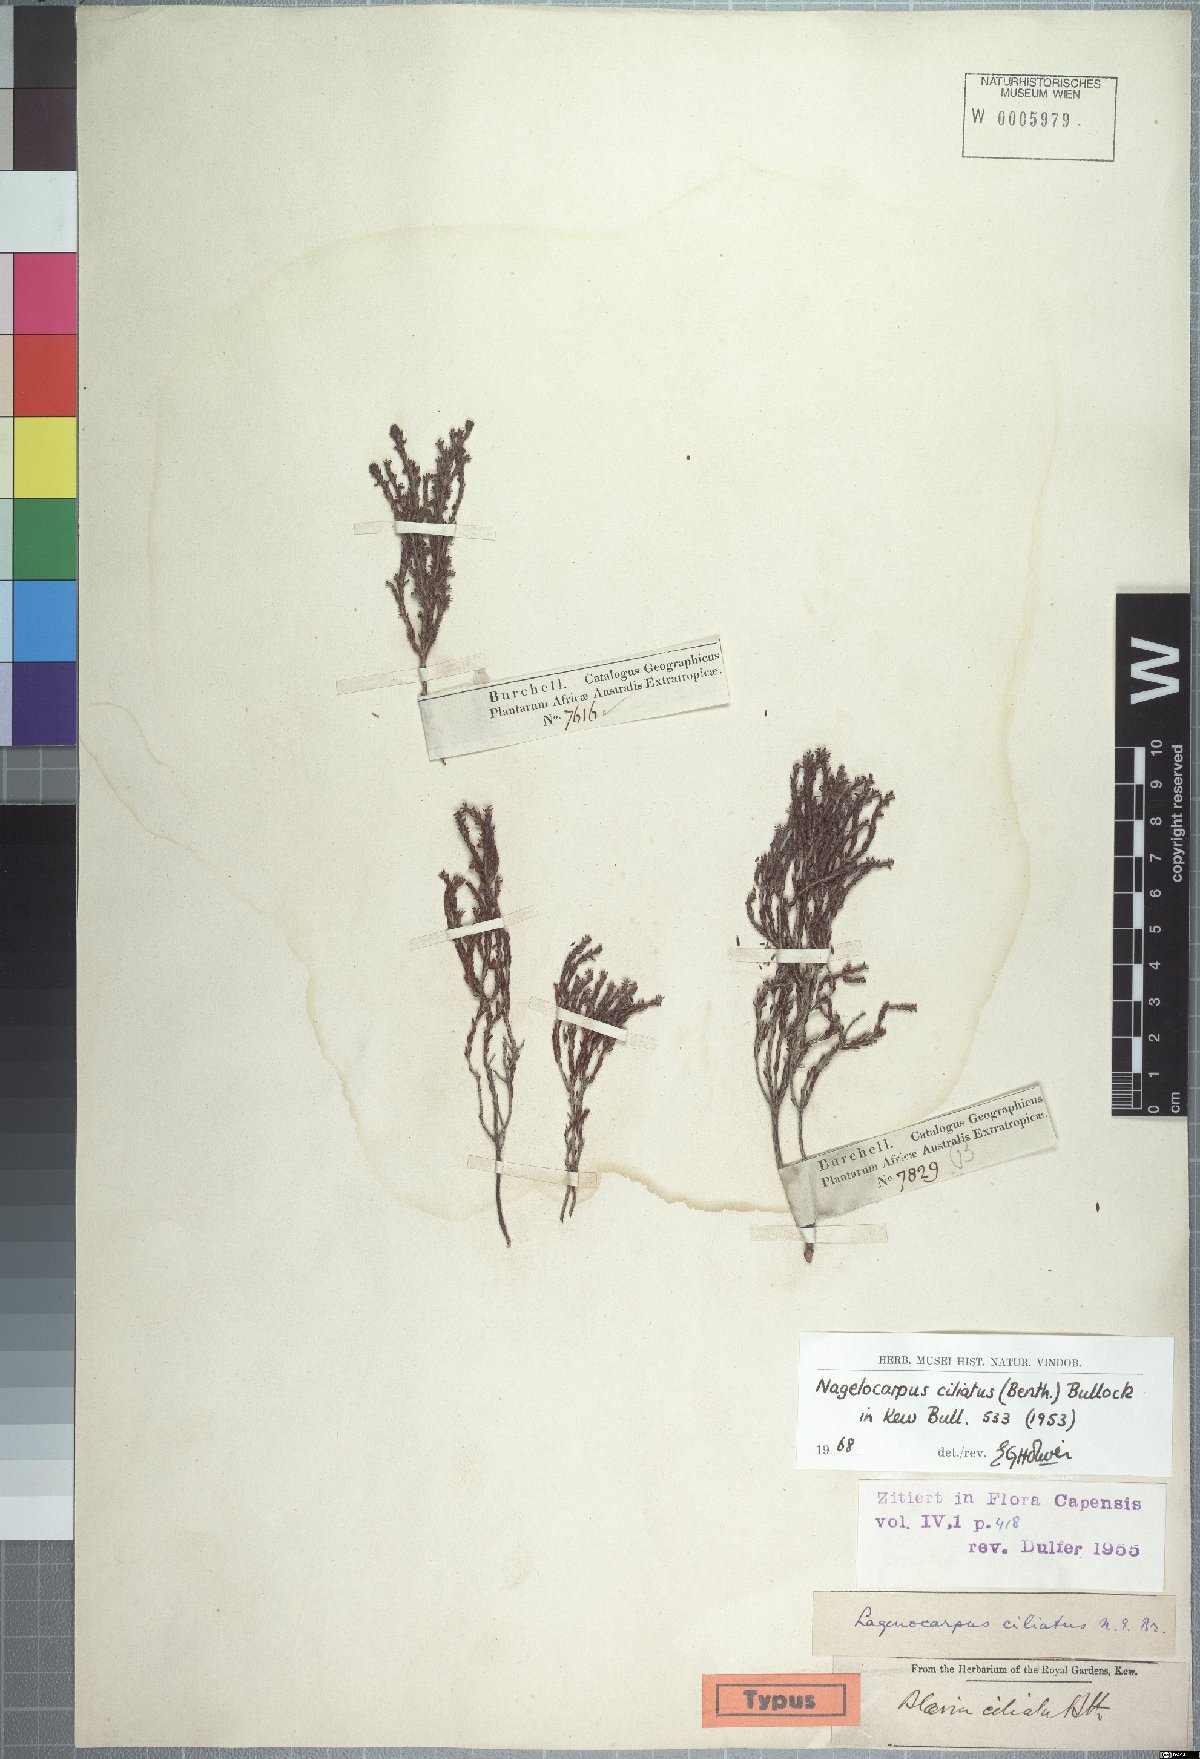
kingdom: Plantae
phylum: Tracheophyta
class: Magnoliopsida
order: Ericales
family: Ericaceae
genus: Erica
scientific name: Erica serrata
